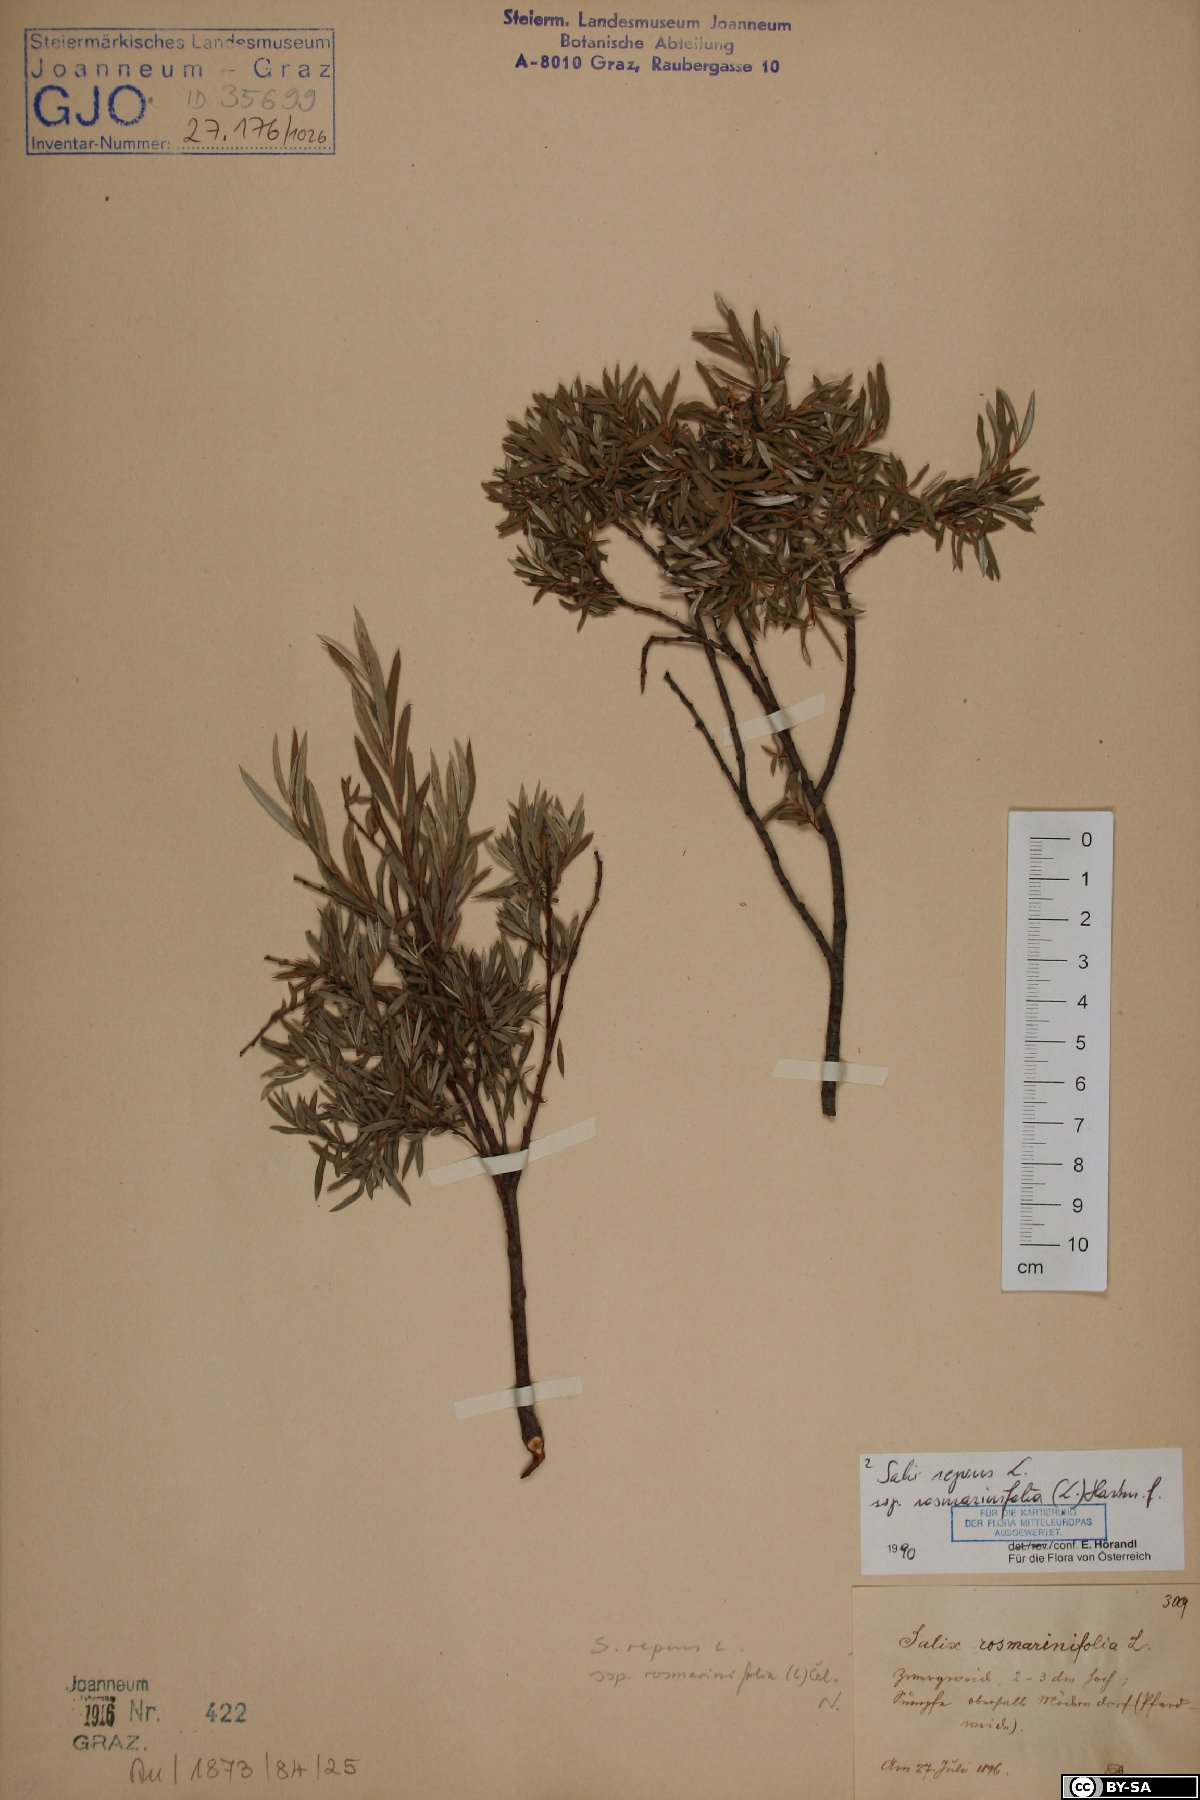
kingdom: Plantae
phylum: Tracheophyta
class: Magnoliopsida
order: Malpighiales
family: Salicaceae
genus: Salix
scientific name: Salix repens
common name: Creeping willow
